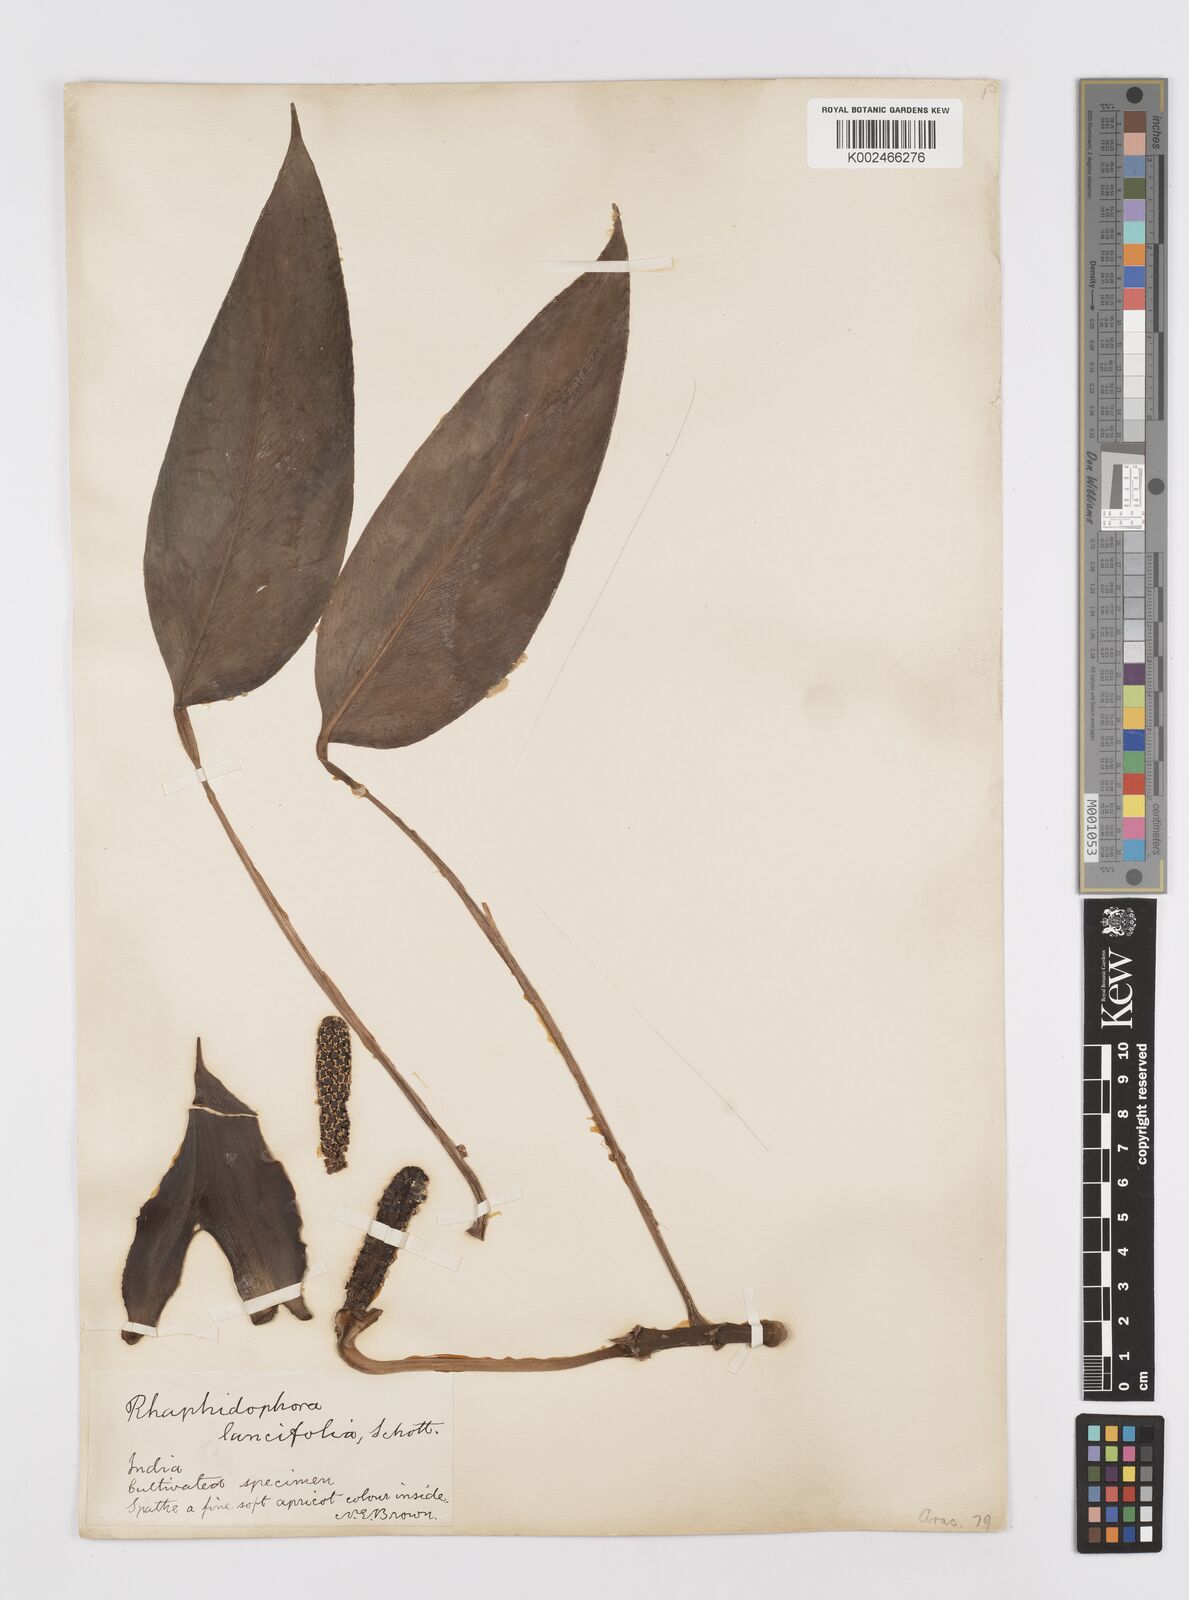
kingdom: Plantae
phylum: Tracheophyta
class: Liliopsida
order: Alismatales
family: Araceae
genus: Rhaphidophora
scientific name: Rhaphidophora peepla
